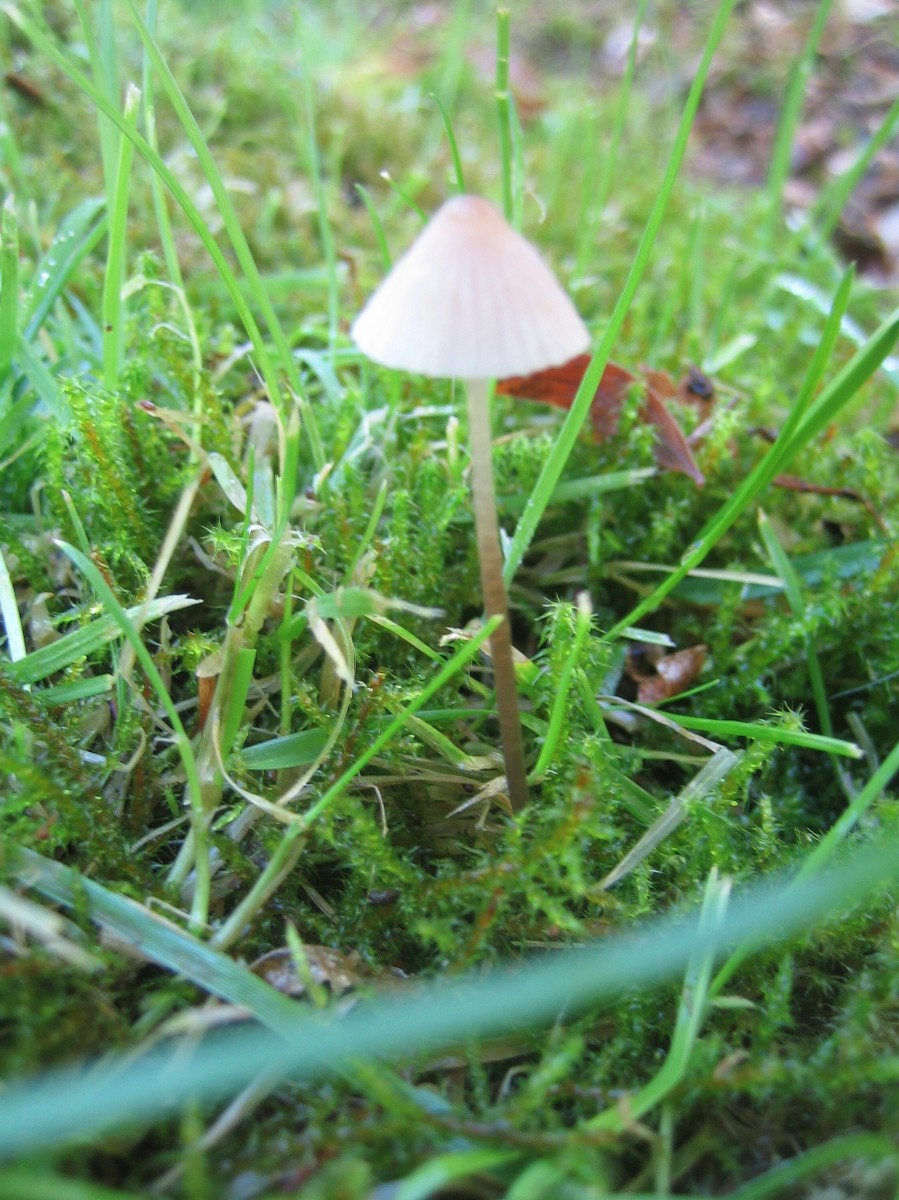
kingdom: Fungi
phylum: Basidiomycota
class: Agaricomycetes
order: Agaricales
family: Mycenaceae
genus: Mycena
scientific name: Mycena
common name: huesvamp
